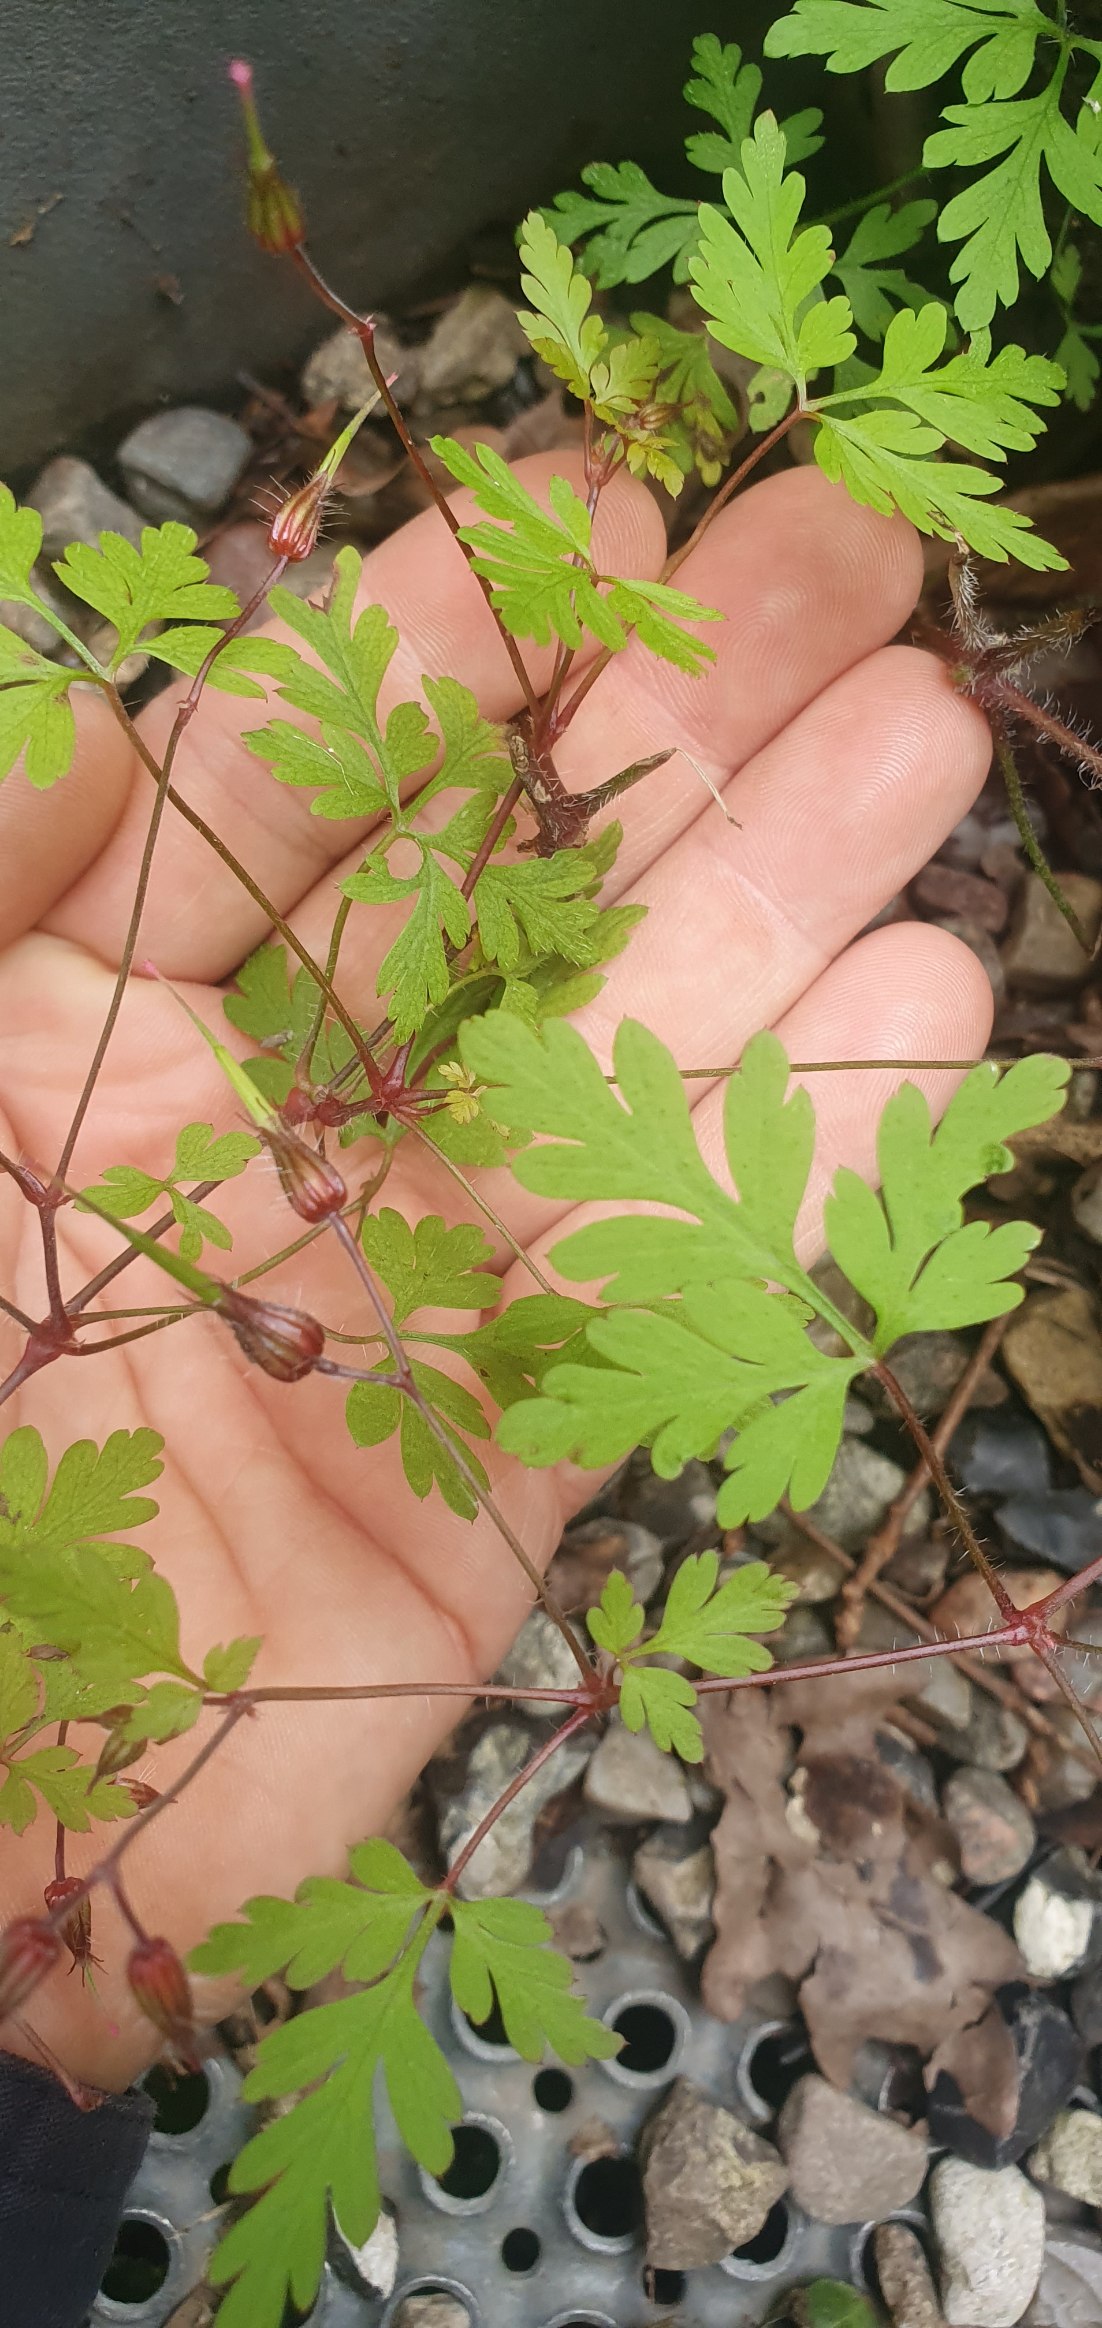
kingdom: Plantae
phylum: Tracheophyta
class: Magnoliopsida
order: Geraniales
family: Geraniaceae
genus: Geranium
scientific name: Geranium robertianum
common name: Stinkende storkenæb
